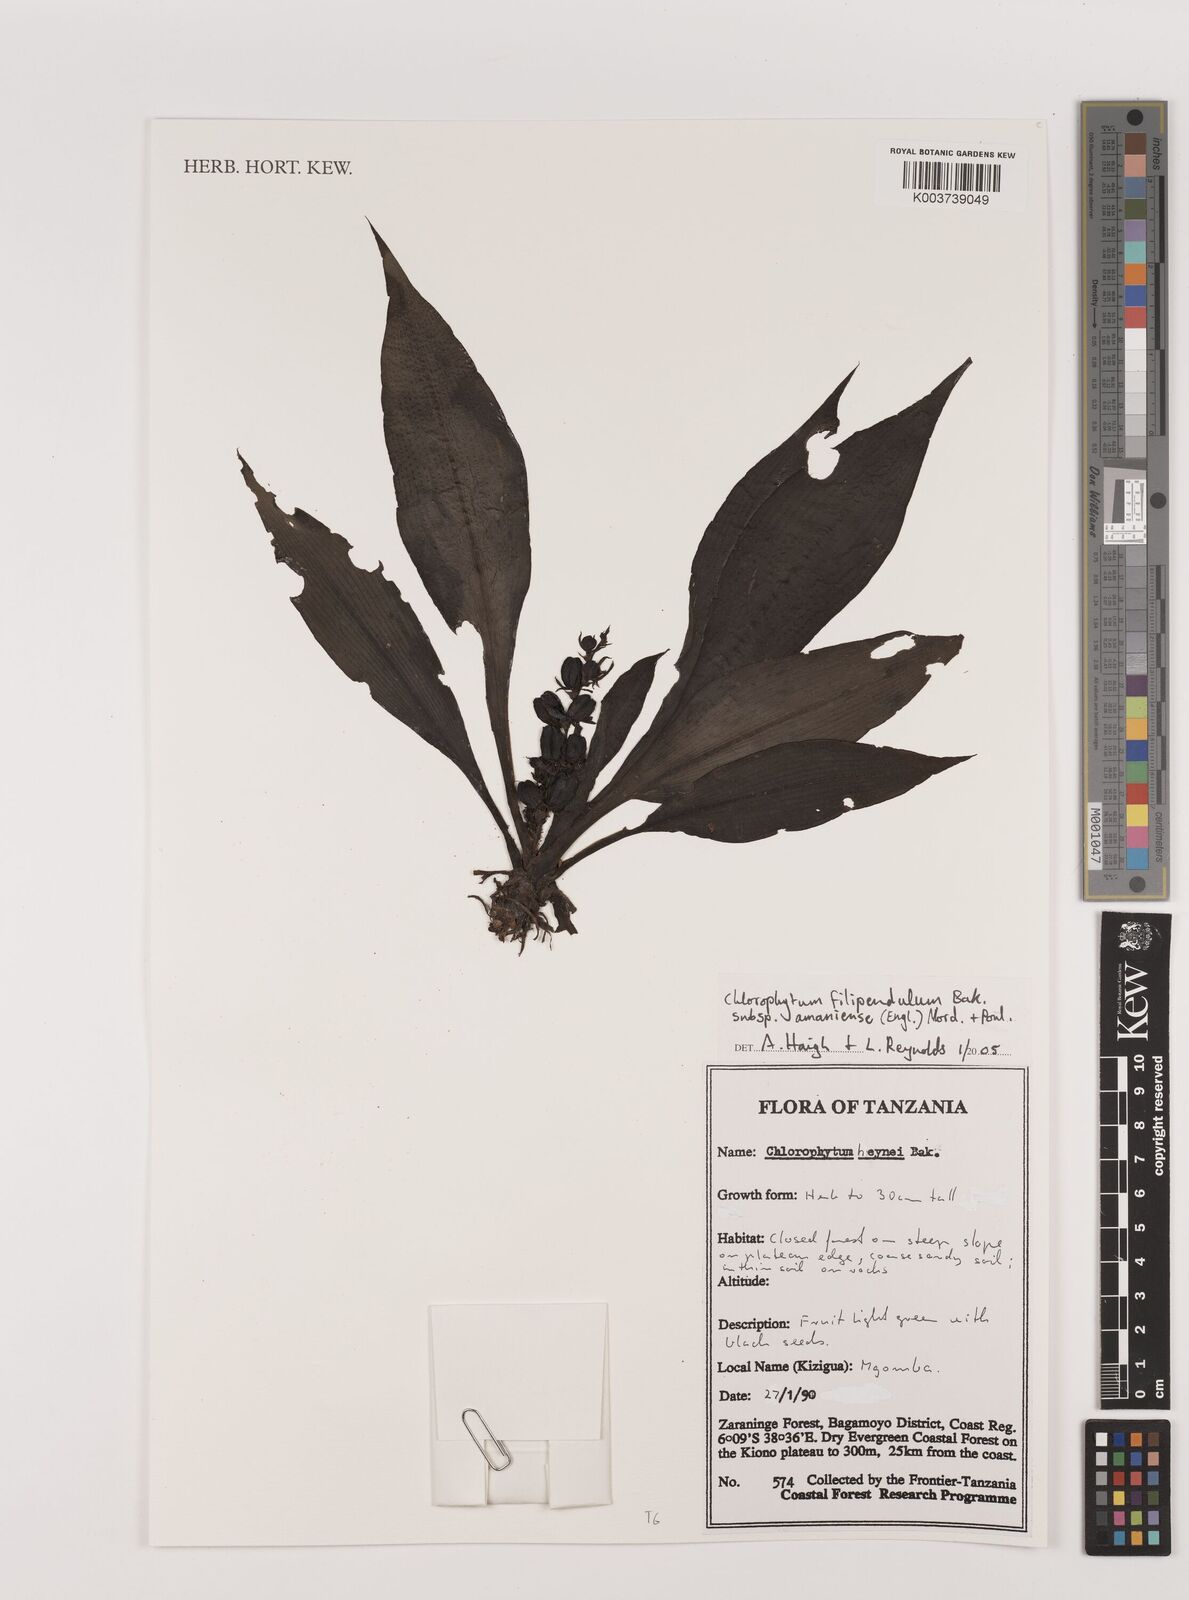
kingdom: Plantae
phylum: Tracheophyta
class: Liliopsida
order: Asparagales
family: Asparagaceae
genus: Chlorophytum
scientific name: Chlorophytum filipendulum
